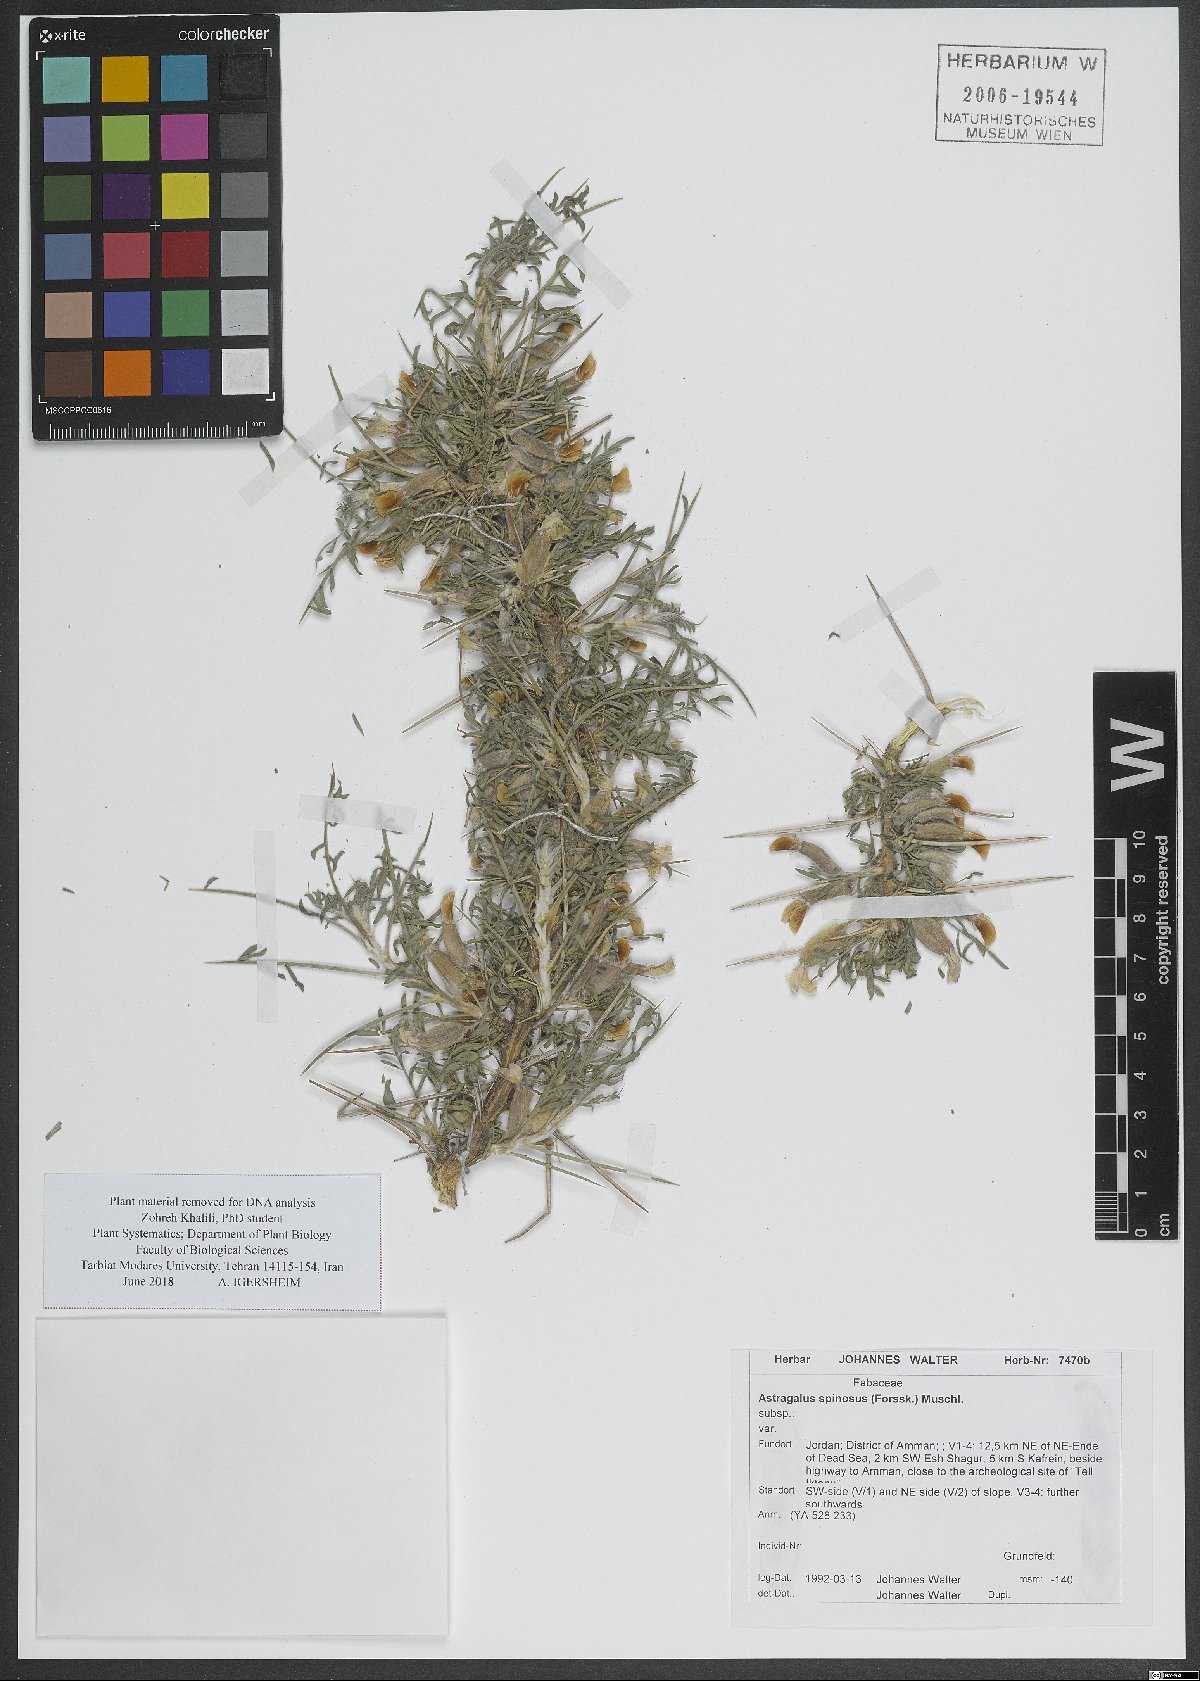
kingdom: Plantae
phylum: Tracheophyta
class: Magnoliopsida
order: Fabales
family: Fabaceae
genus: Astragalus
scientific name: Astragalus spinosus
